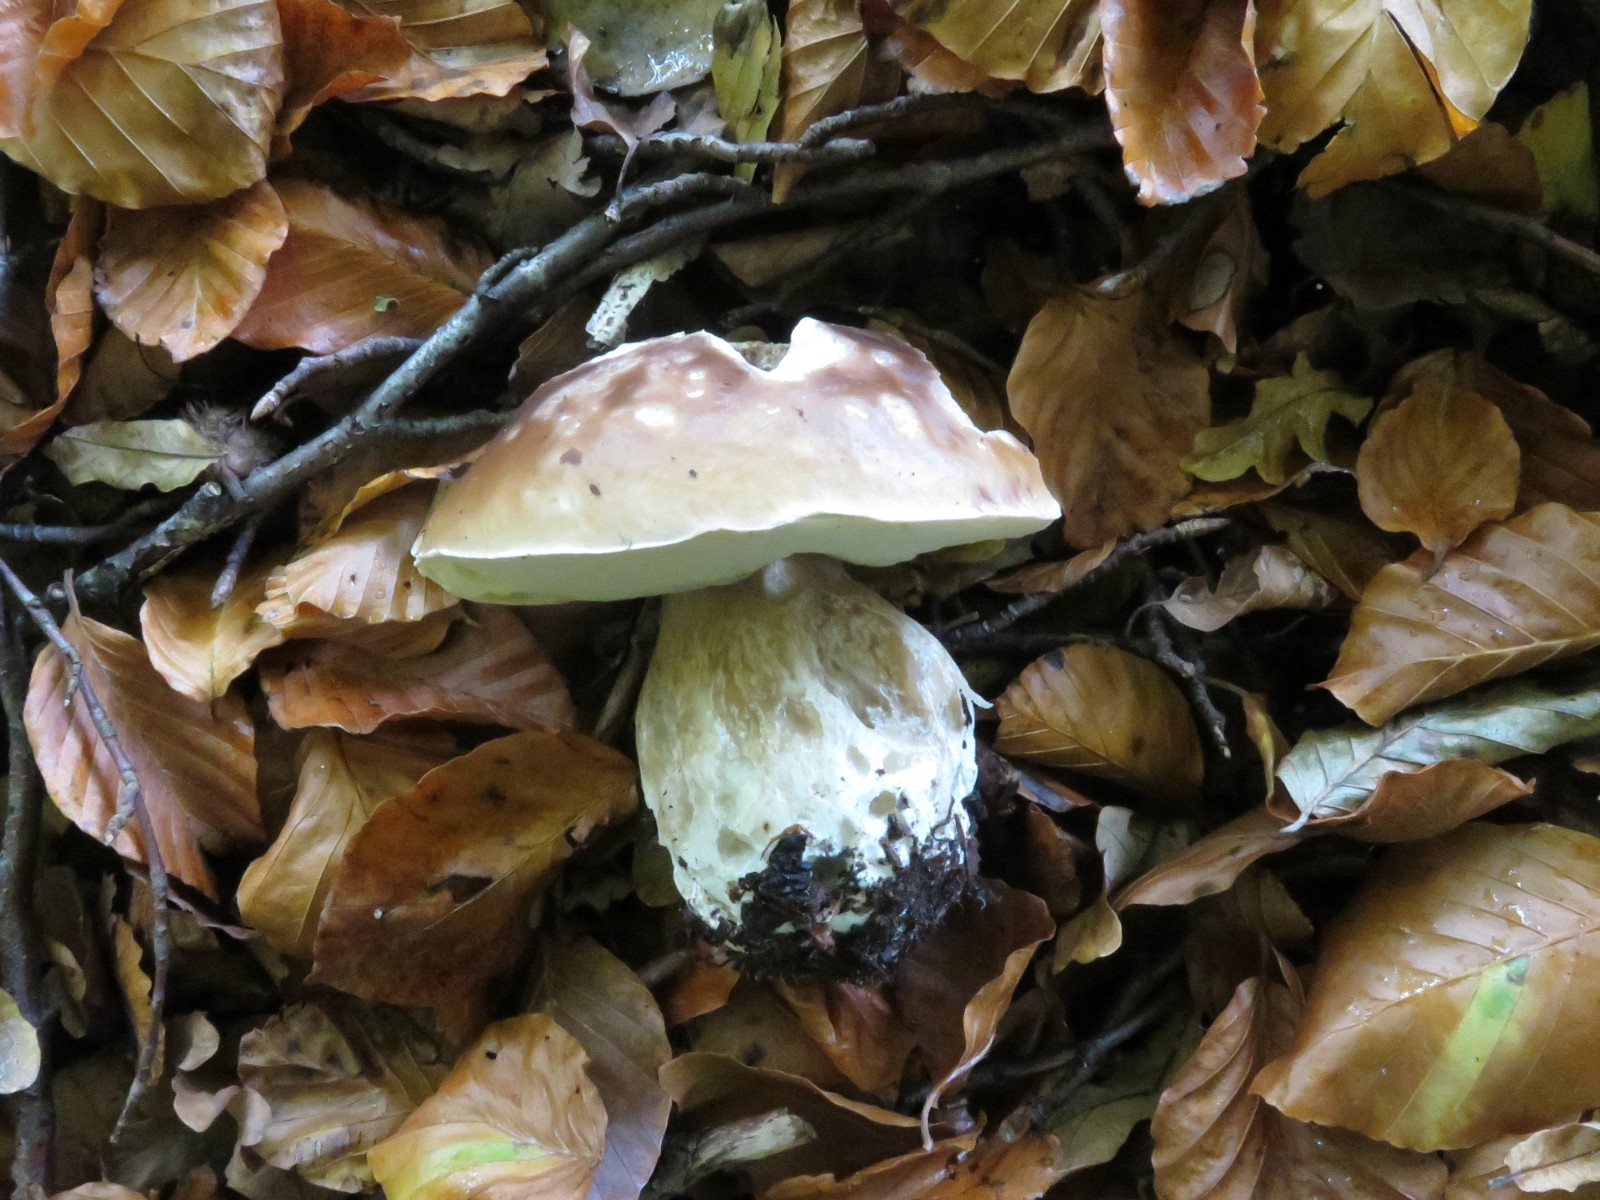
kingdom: Fungi
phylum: Basidiomycota
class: Agaricomycetes
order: Boletales
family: Boletaceae
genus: Boletus
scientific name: Boletus edulis
